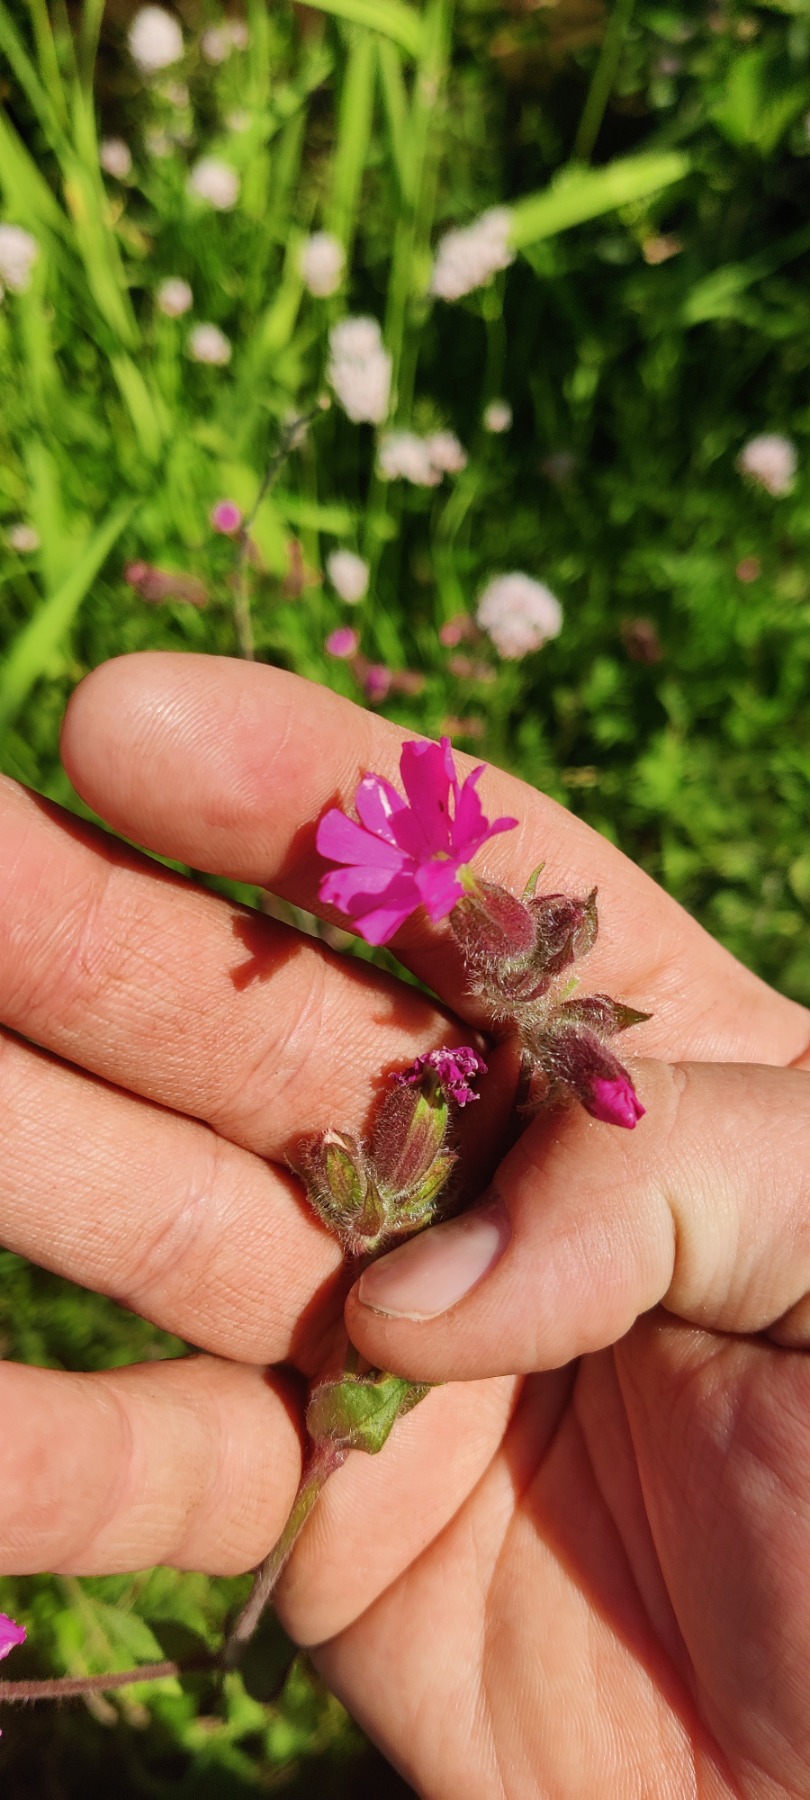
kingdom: Plantae
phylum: Tracheophyta
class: Magnoliopsida
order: Caryophyllales
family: Caryophyllaceae
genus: Silene
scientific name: Silene dioica
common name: Dagpragtstjerne
